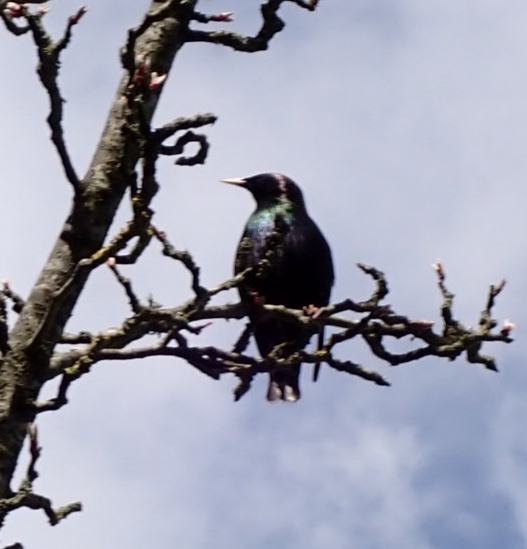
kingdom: Animalia
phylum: Chordata
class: Aves
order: Passeriformes
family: Sturnidae
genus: Sturnus
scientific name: Sturnus vulgaris
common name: Stær
